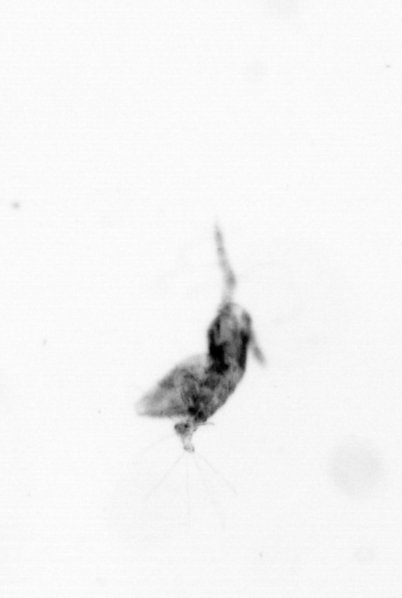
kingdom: Animalia
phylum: Arthropoda
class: Copepoda
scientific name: Copepoda
